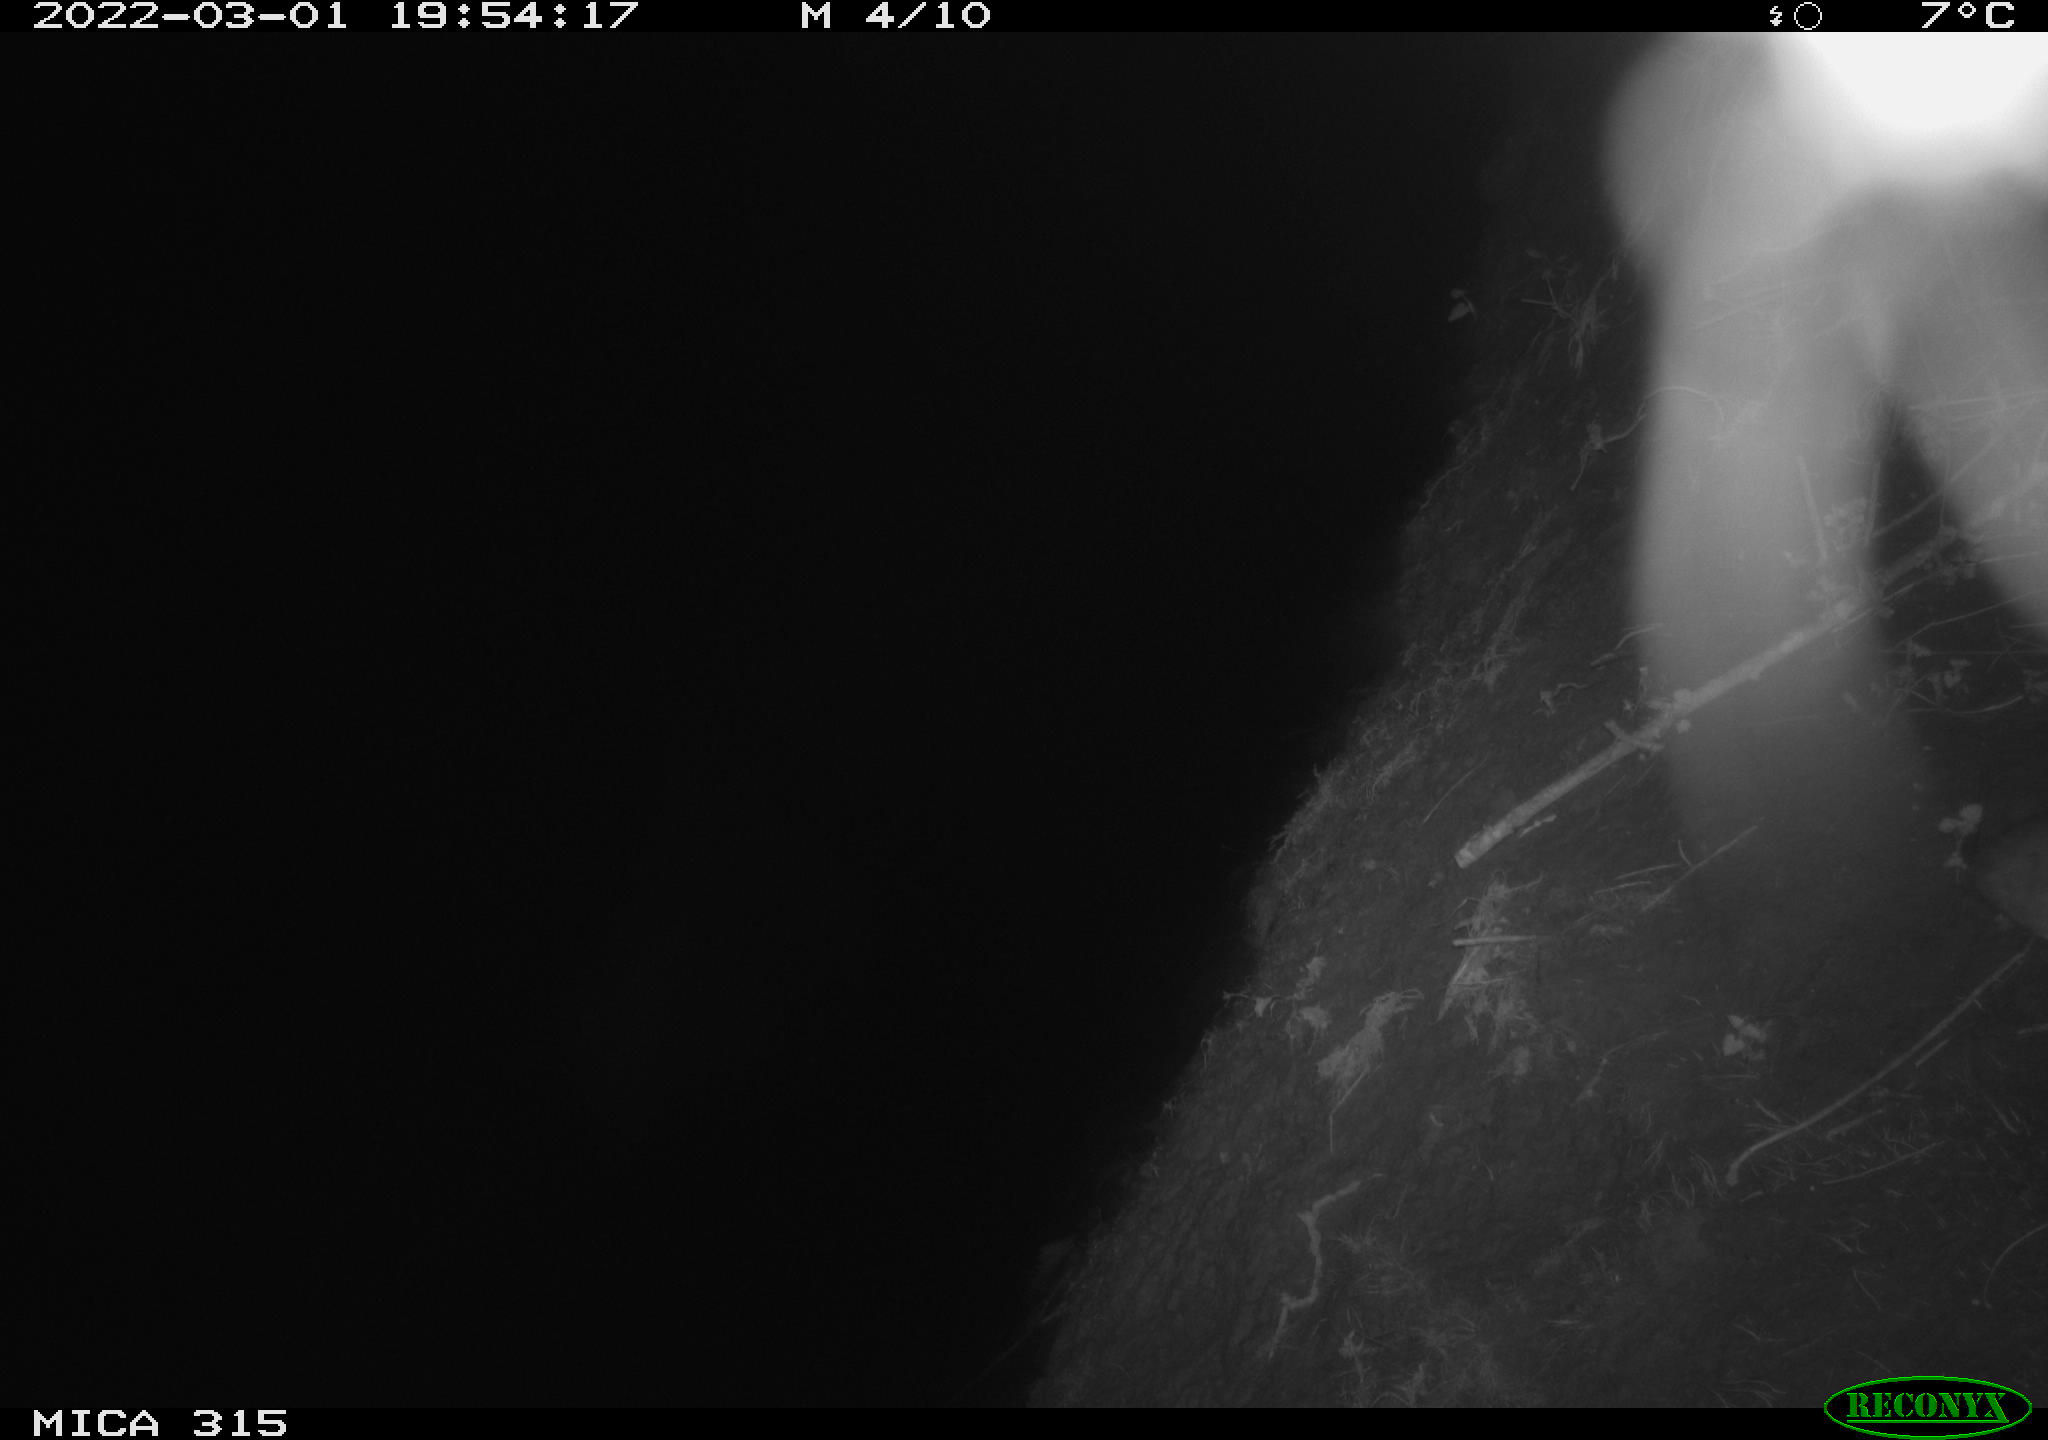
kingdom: Animalia
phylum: Chordata
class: Mammalia
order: Rodentia
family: Muridae
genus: Rattus
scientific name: Rattus norvegicus
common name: Brown rat
